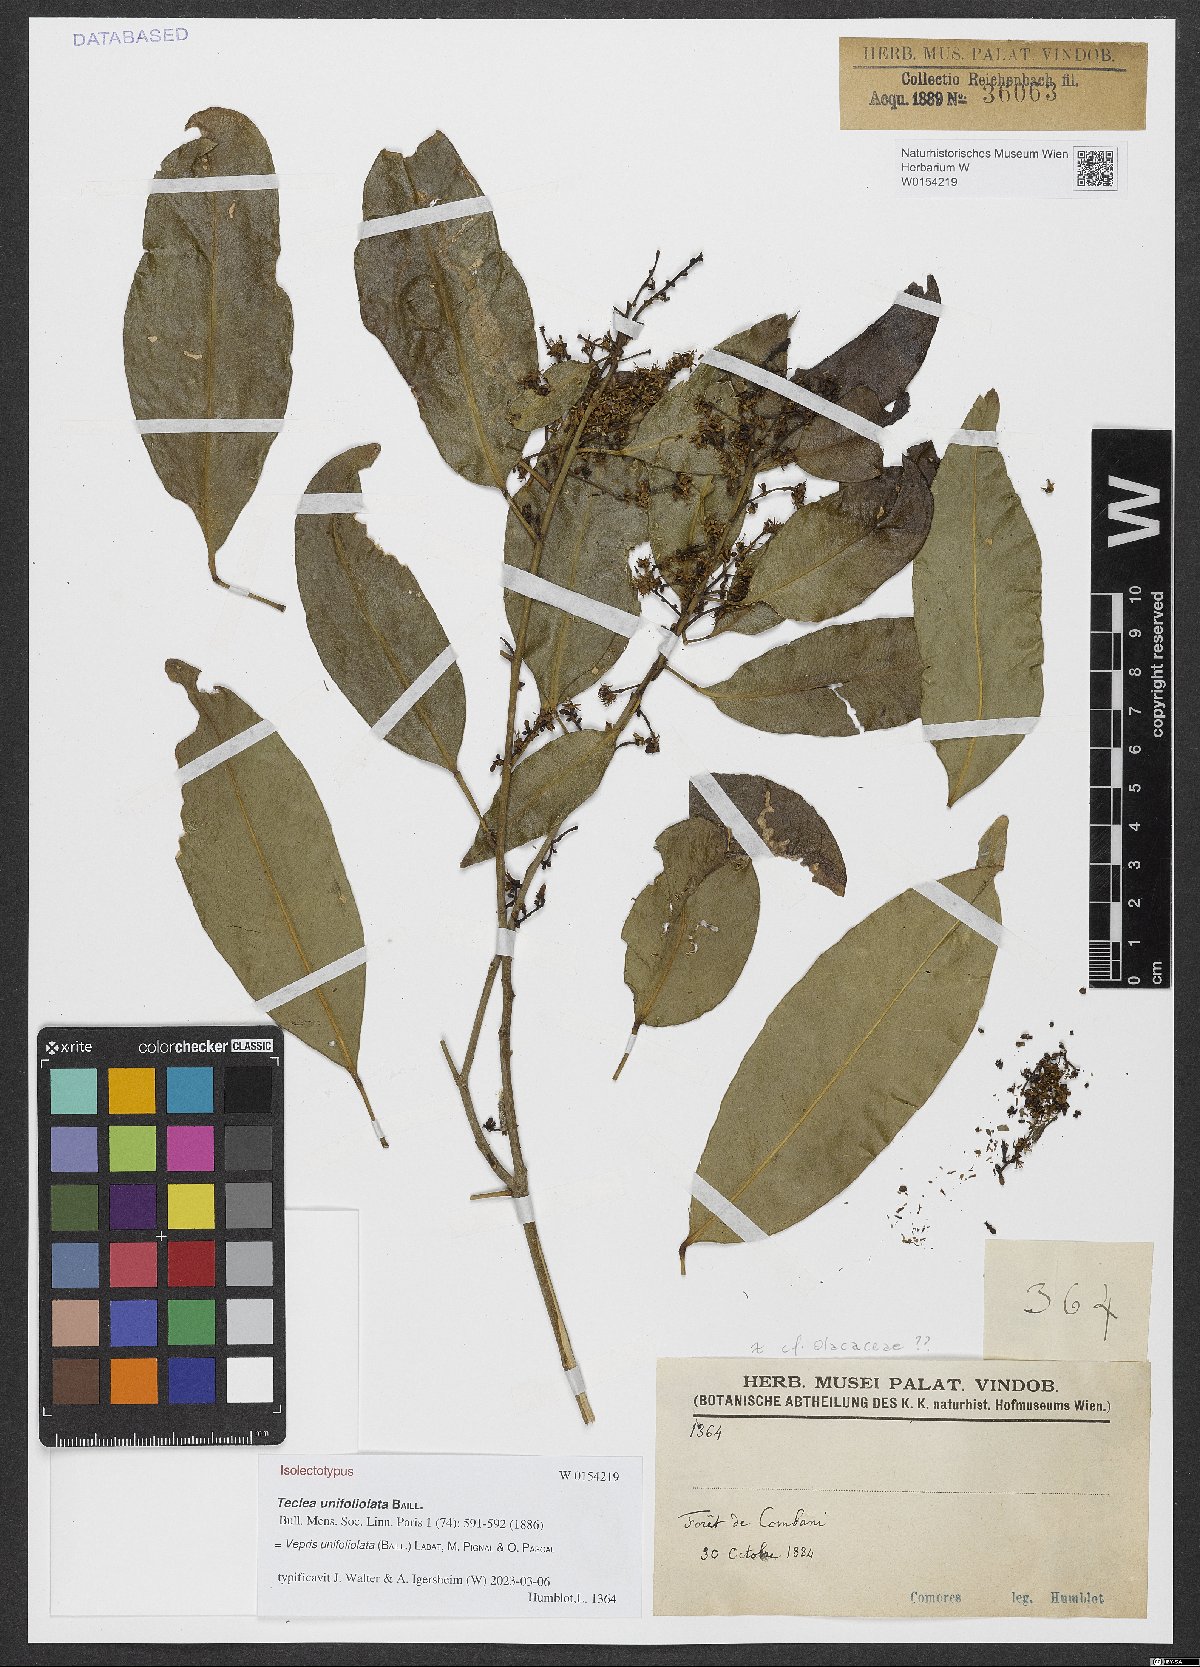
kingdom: Plantae
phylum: Tracheophyta
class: Magnoliopsida
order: Sapindales
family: Rutaceae
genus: Vepris
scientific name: Vepris unifoliolata
